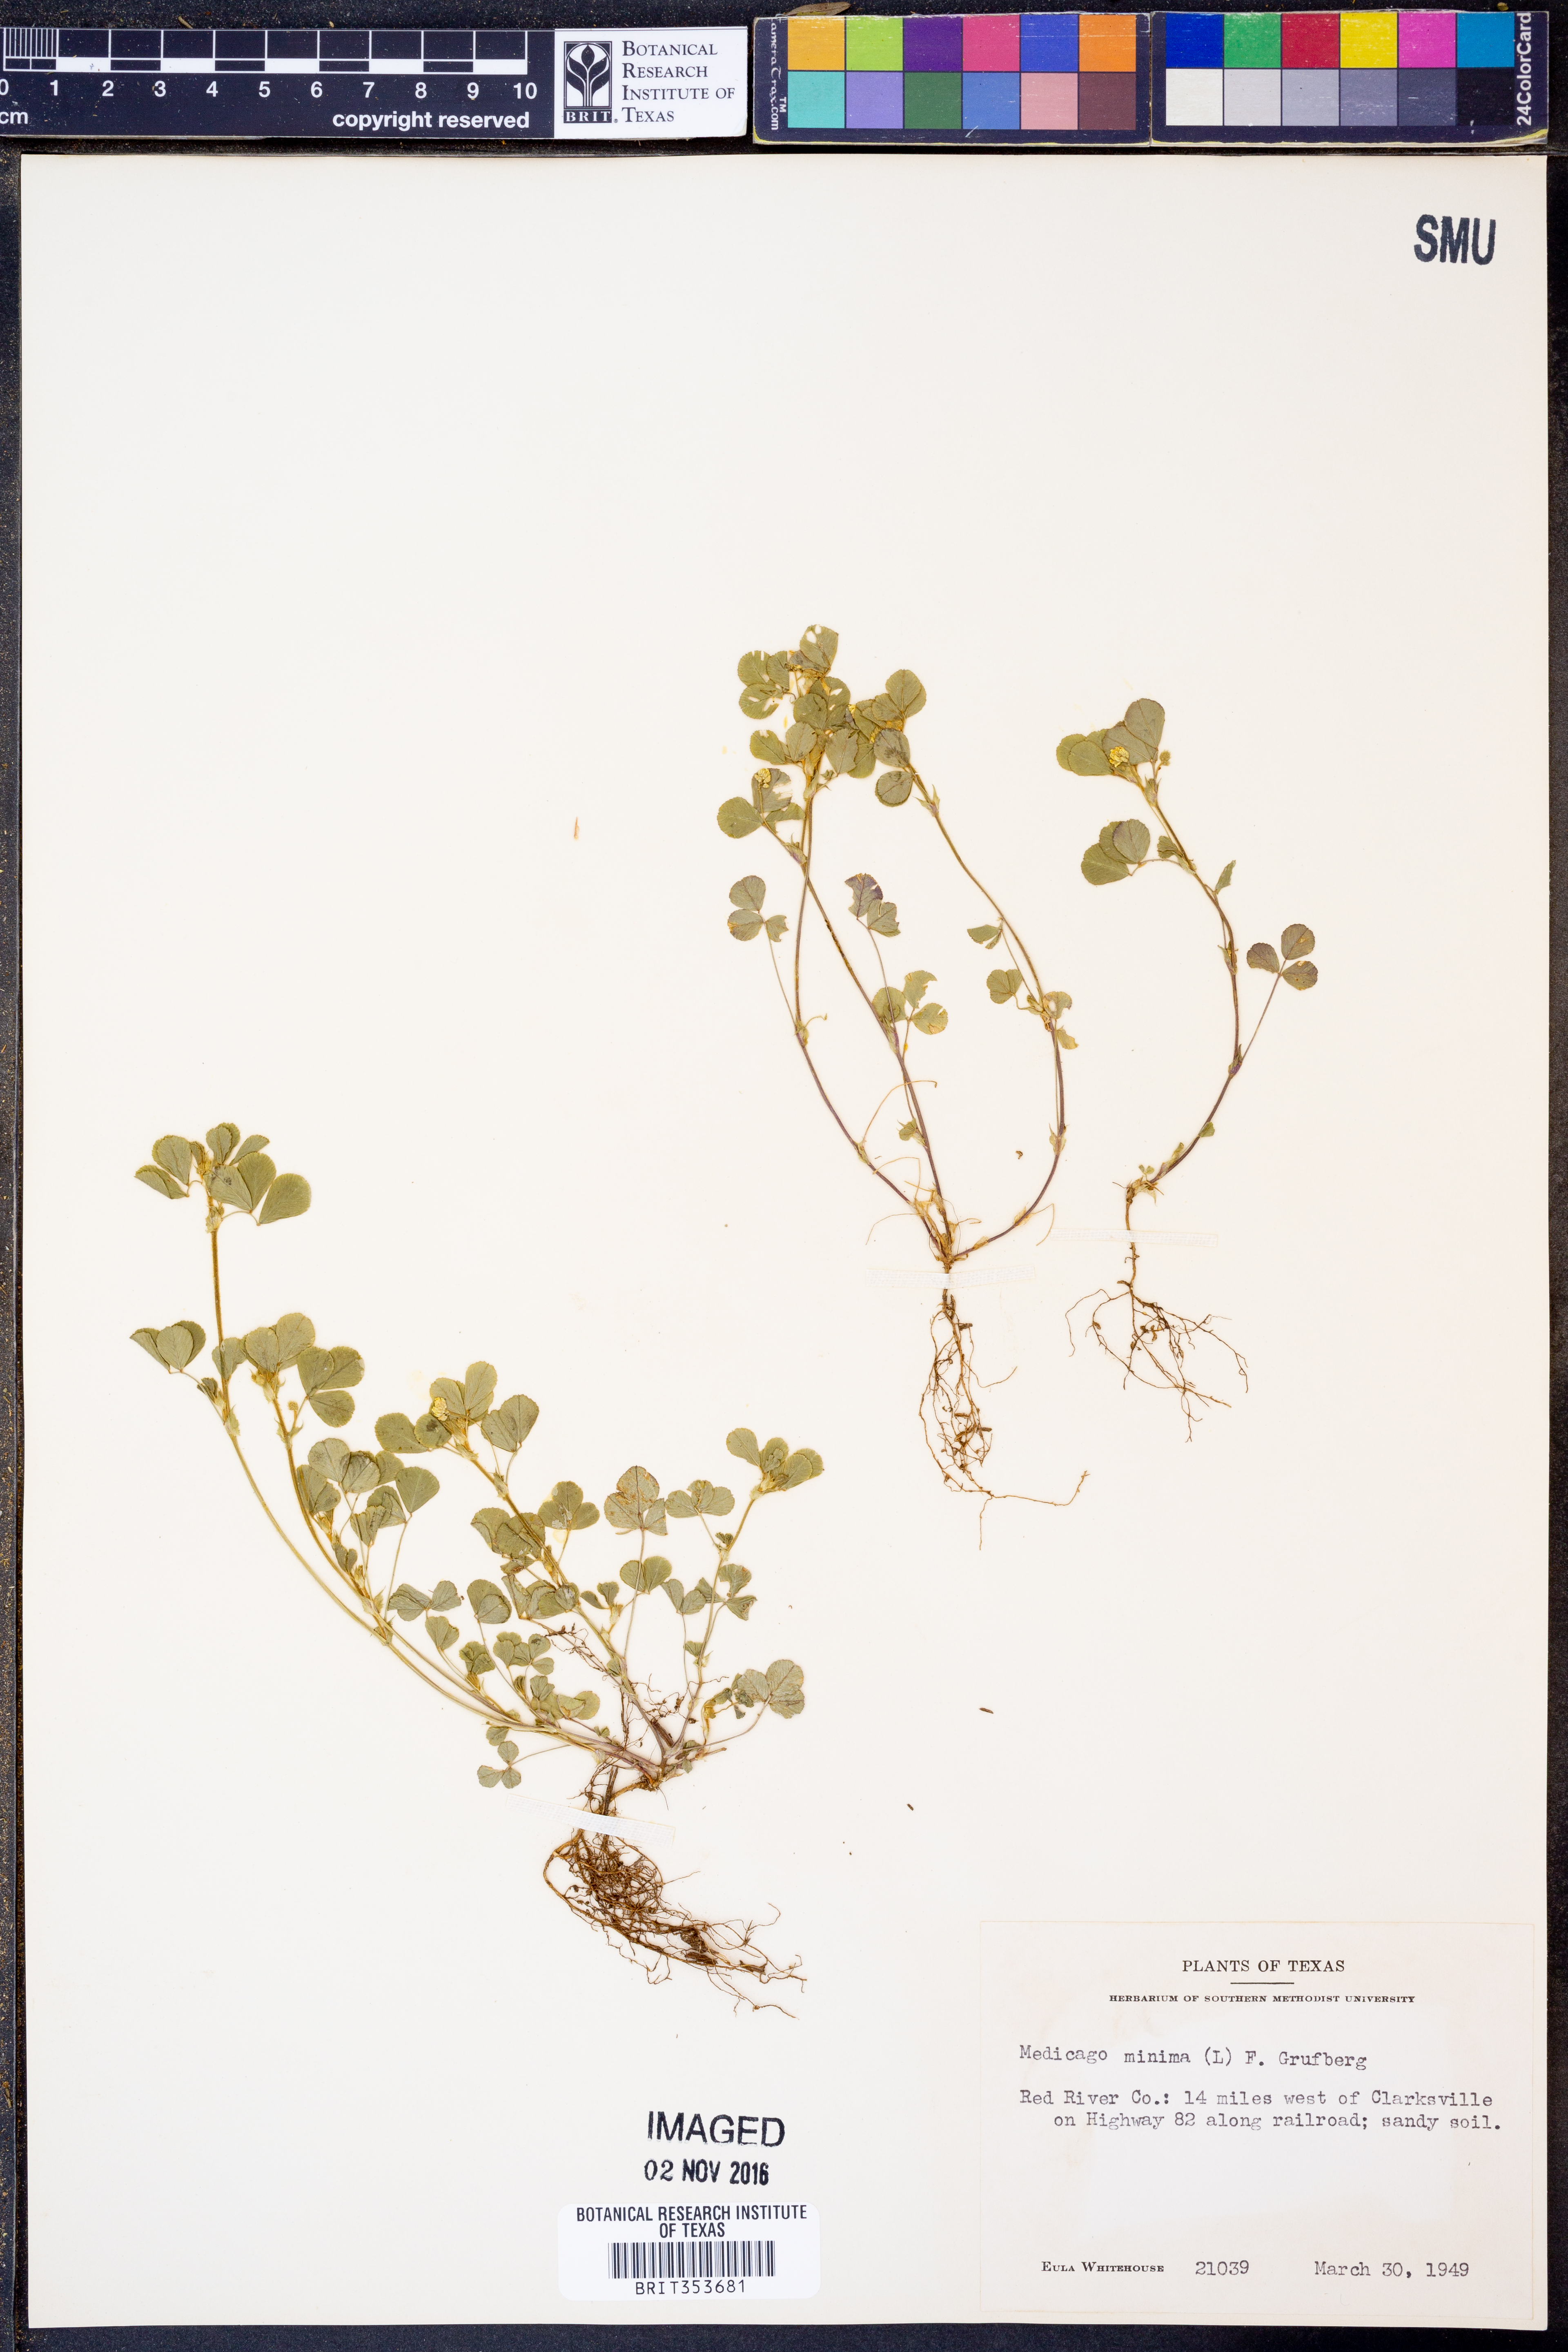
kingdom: Plantae
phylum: Tracheophyta
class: Magnoliopsida
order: Fabales
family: Fabaceae
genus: Medicago
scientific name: Medicago minima
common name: Little bur-clover
